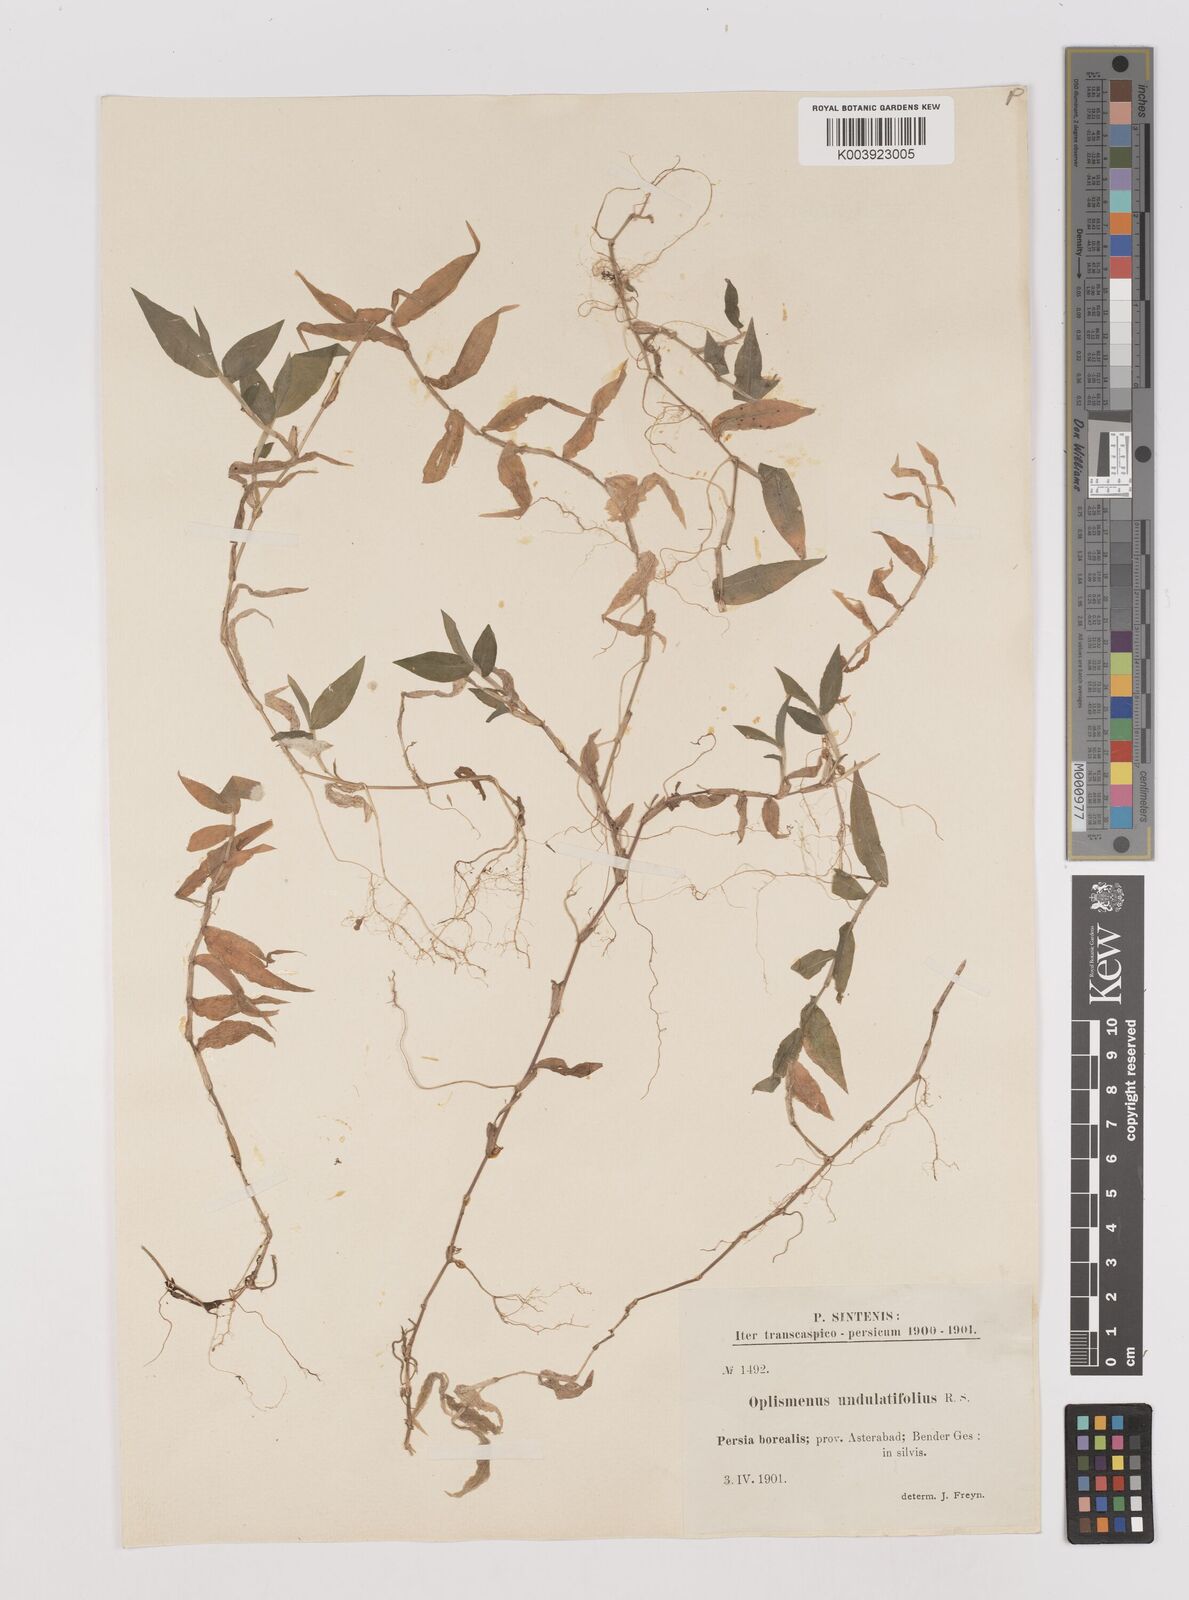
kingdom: Plantae
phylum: Tracheophyta
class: Liliopsida
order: Poales
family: Poaceae
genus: Oplismenus
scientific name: Oplismenus undulatifolius
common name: Wavyleaf basketgrass
